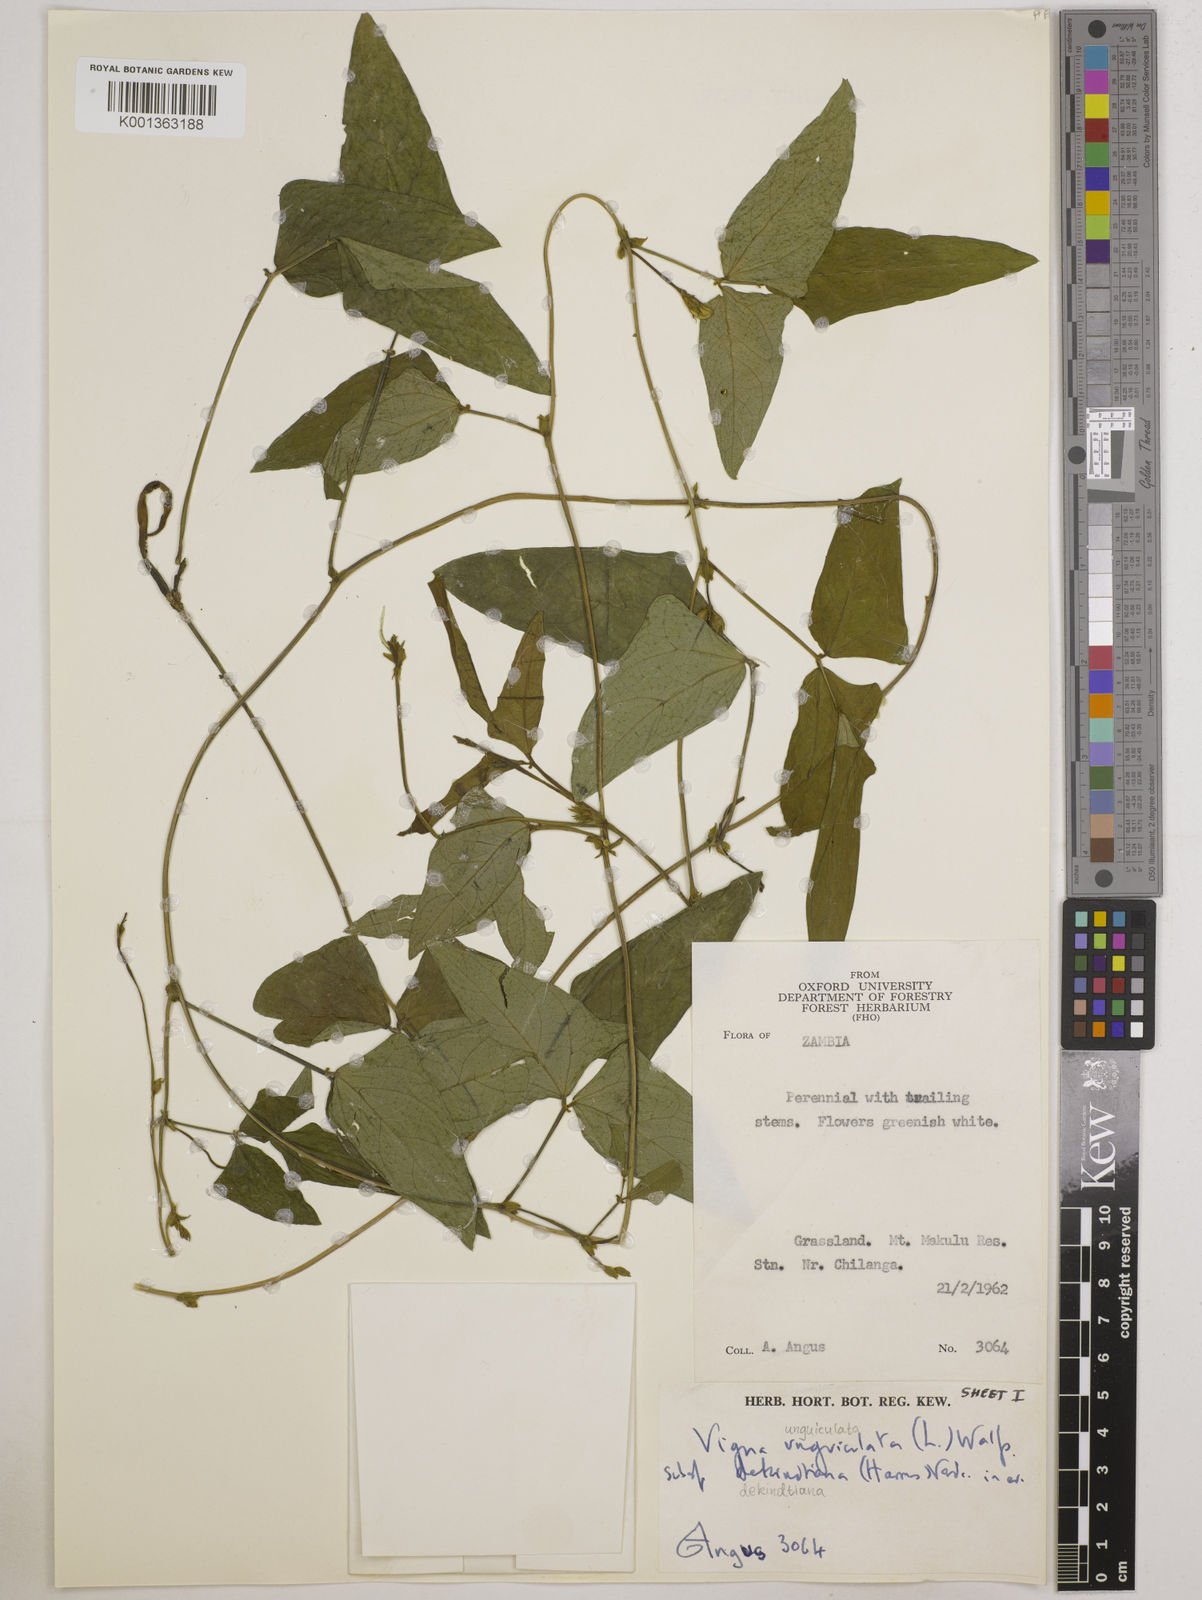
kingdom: Plantae
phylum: Tracheophyta
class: Magnoliopsida
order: Fabales
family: Fabaceae
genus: Vigna
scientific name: Vigna unguiculata
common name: Cowpea
